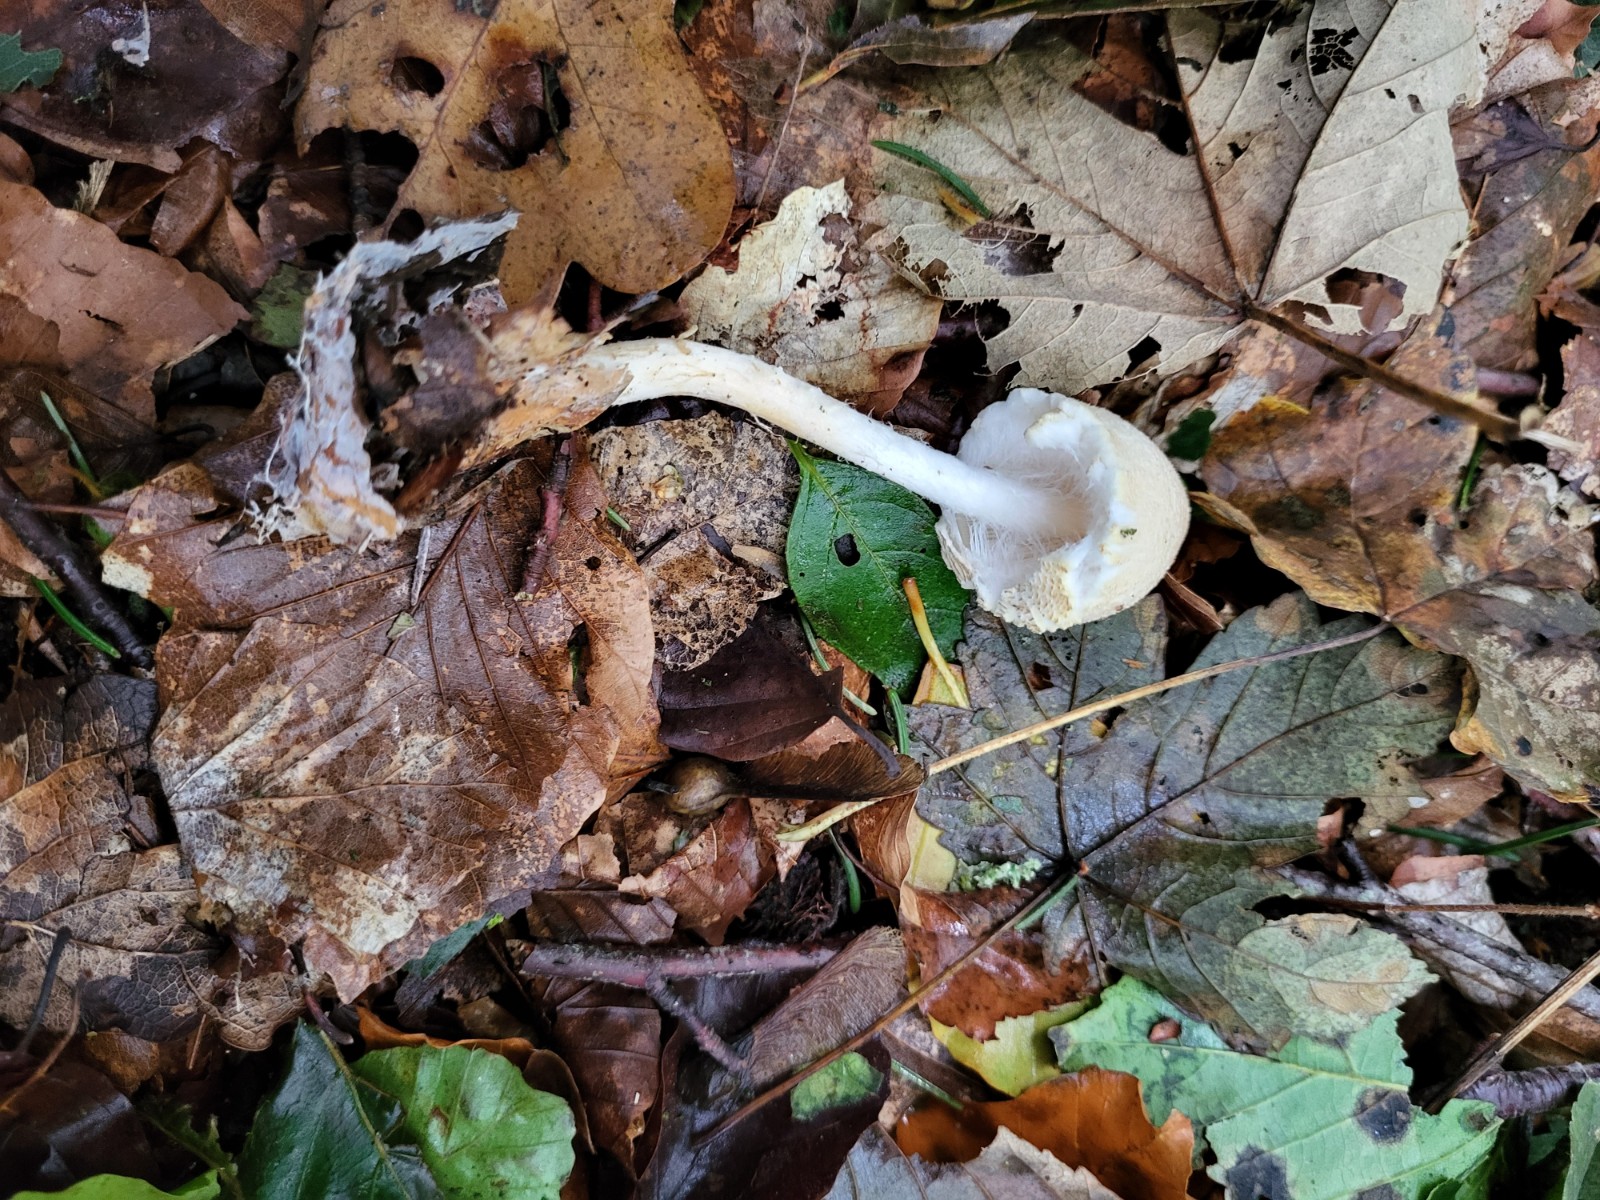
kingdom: Fungi
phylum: Basidiomycota
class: Agaricomycetes
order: Agaricales
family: Agaricaceae
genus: Lepiota
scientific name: Lepiota magnispora
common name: gulfnugget parasolhat
